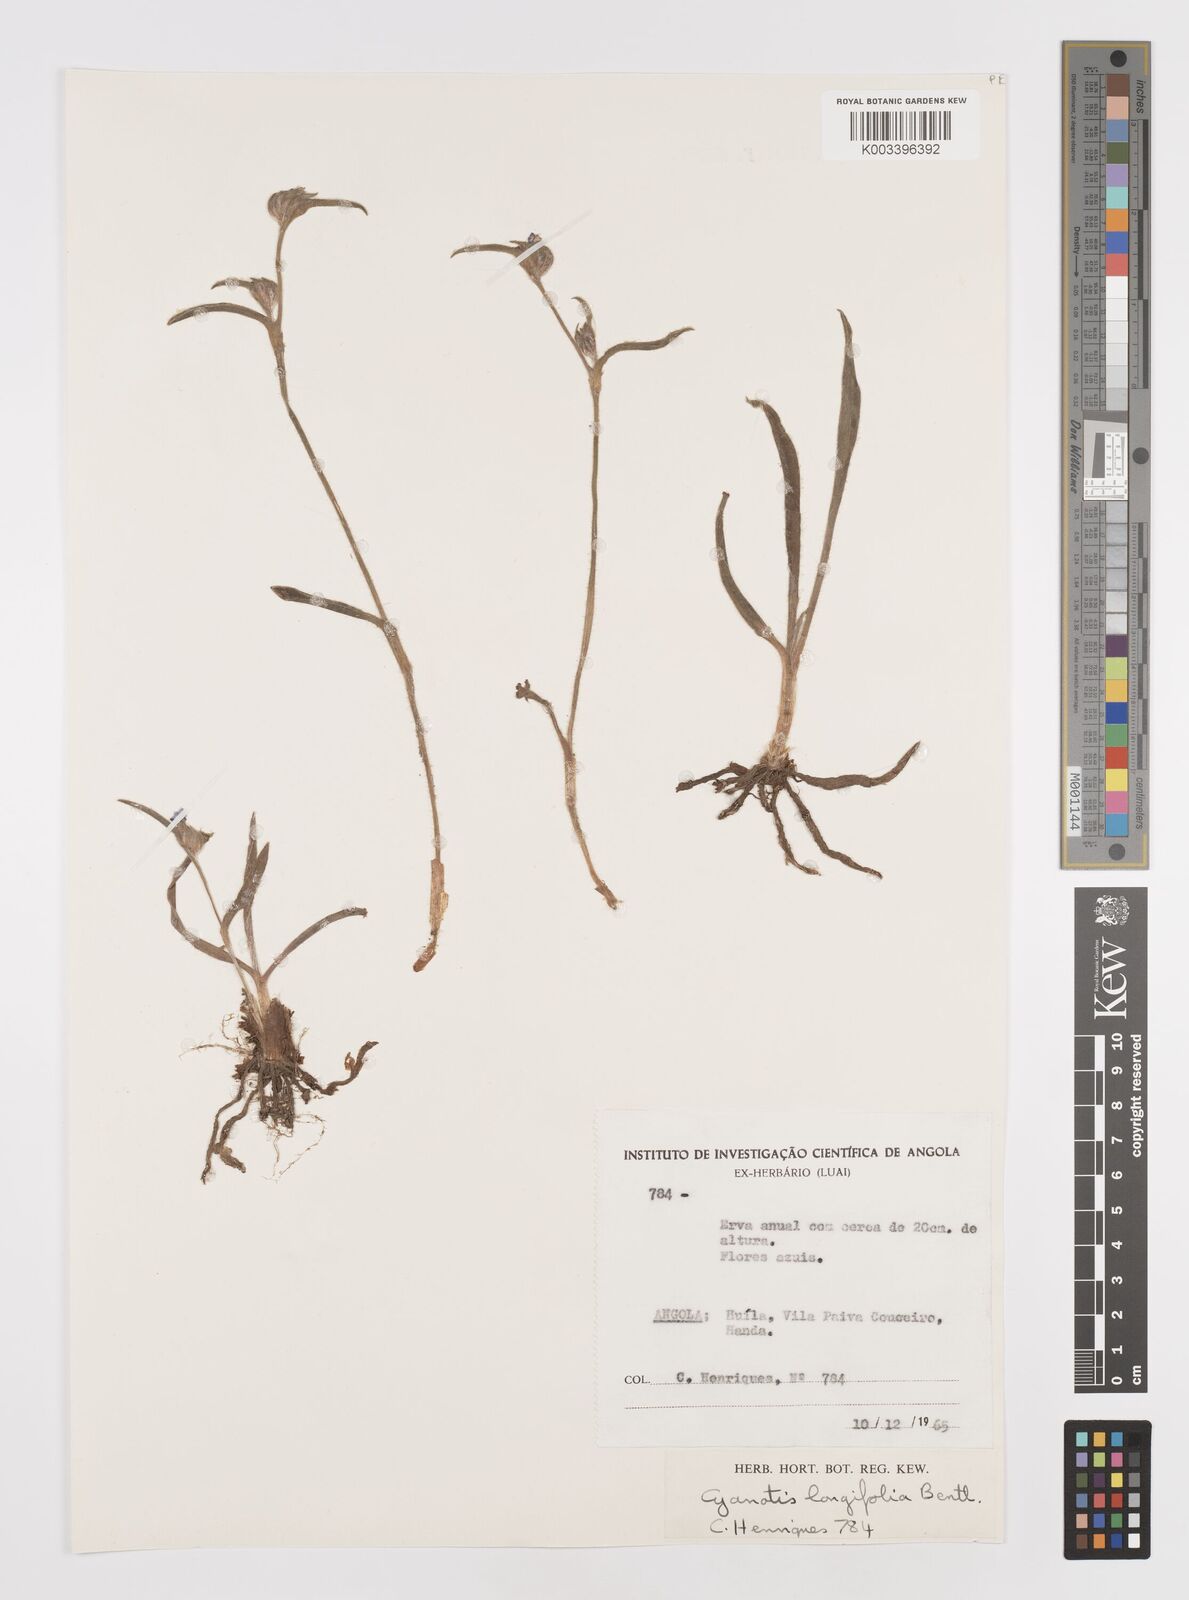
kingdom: Plantae
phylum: Tracheophyta
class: Liliopsida
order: Commelinales
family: Commelinaceae
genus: Cyanotis
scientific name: Cyanotis longifolia
